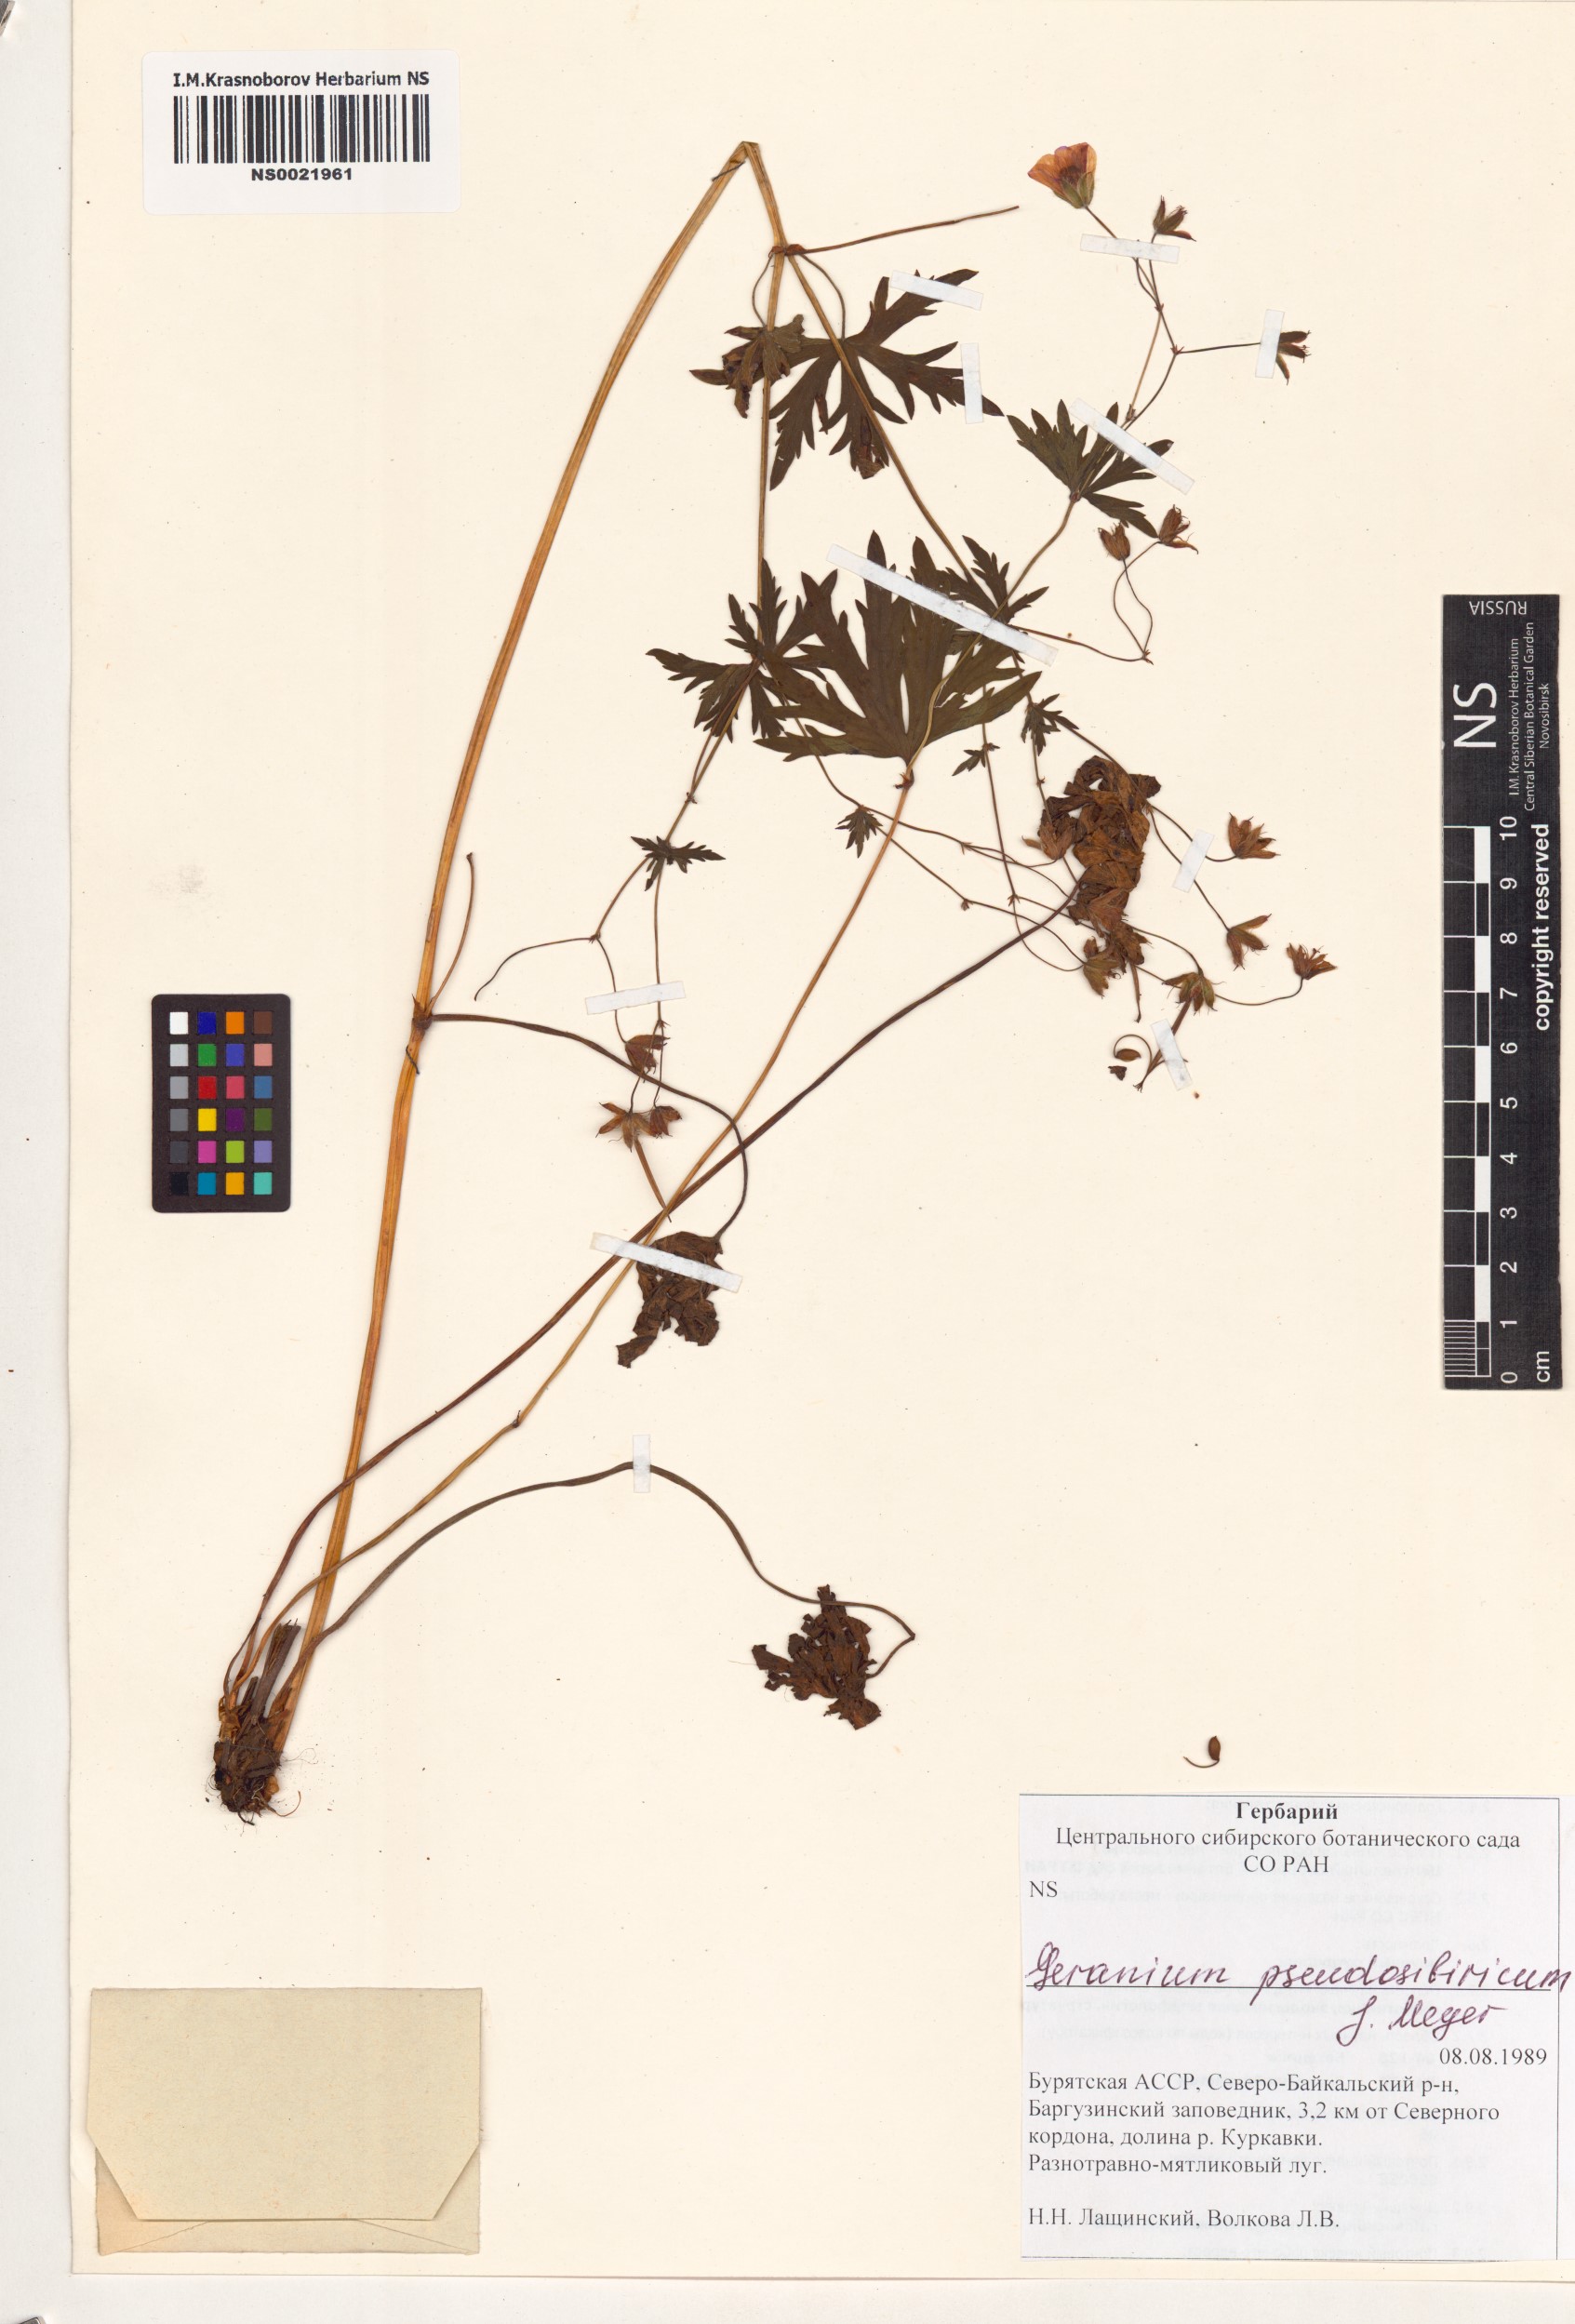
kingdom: Plantae
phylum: Tracheophyta
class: Magnoliopsida
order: Geraniales
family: Geraniaceae
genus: Geranium
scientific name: Geranium pseudosibiricum
